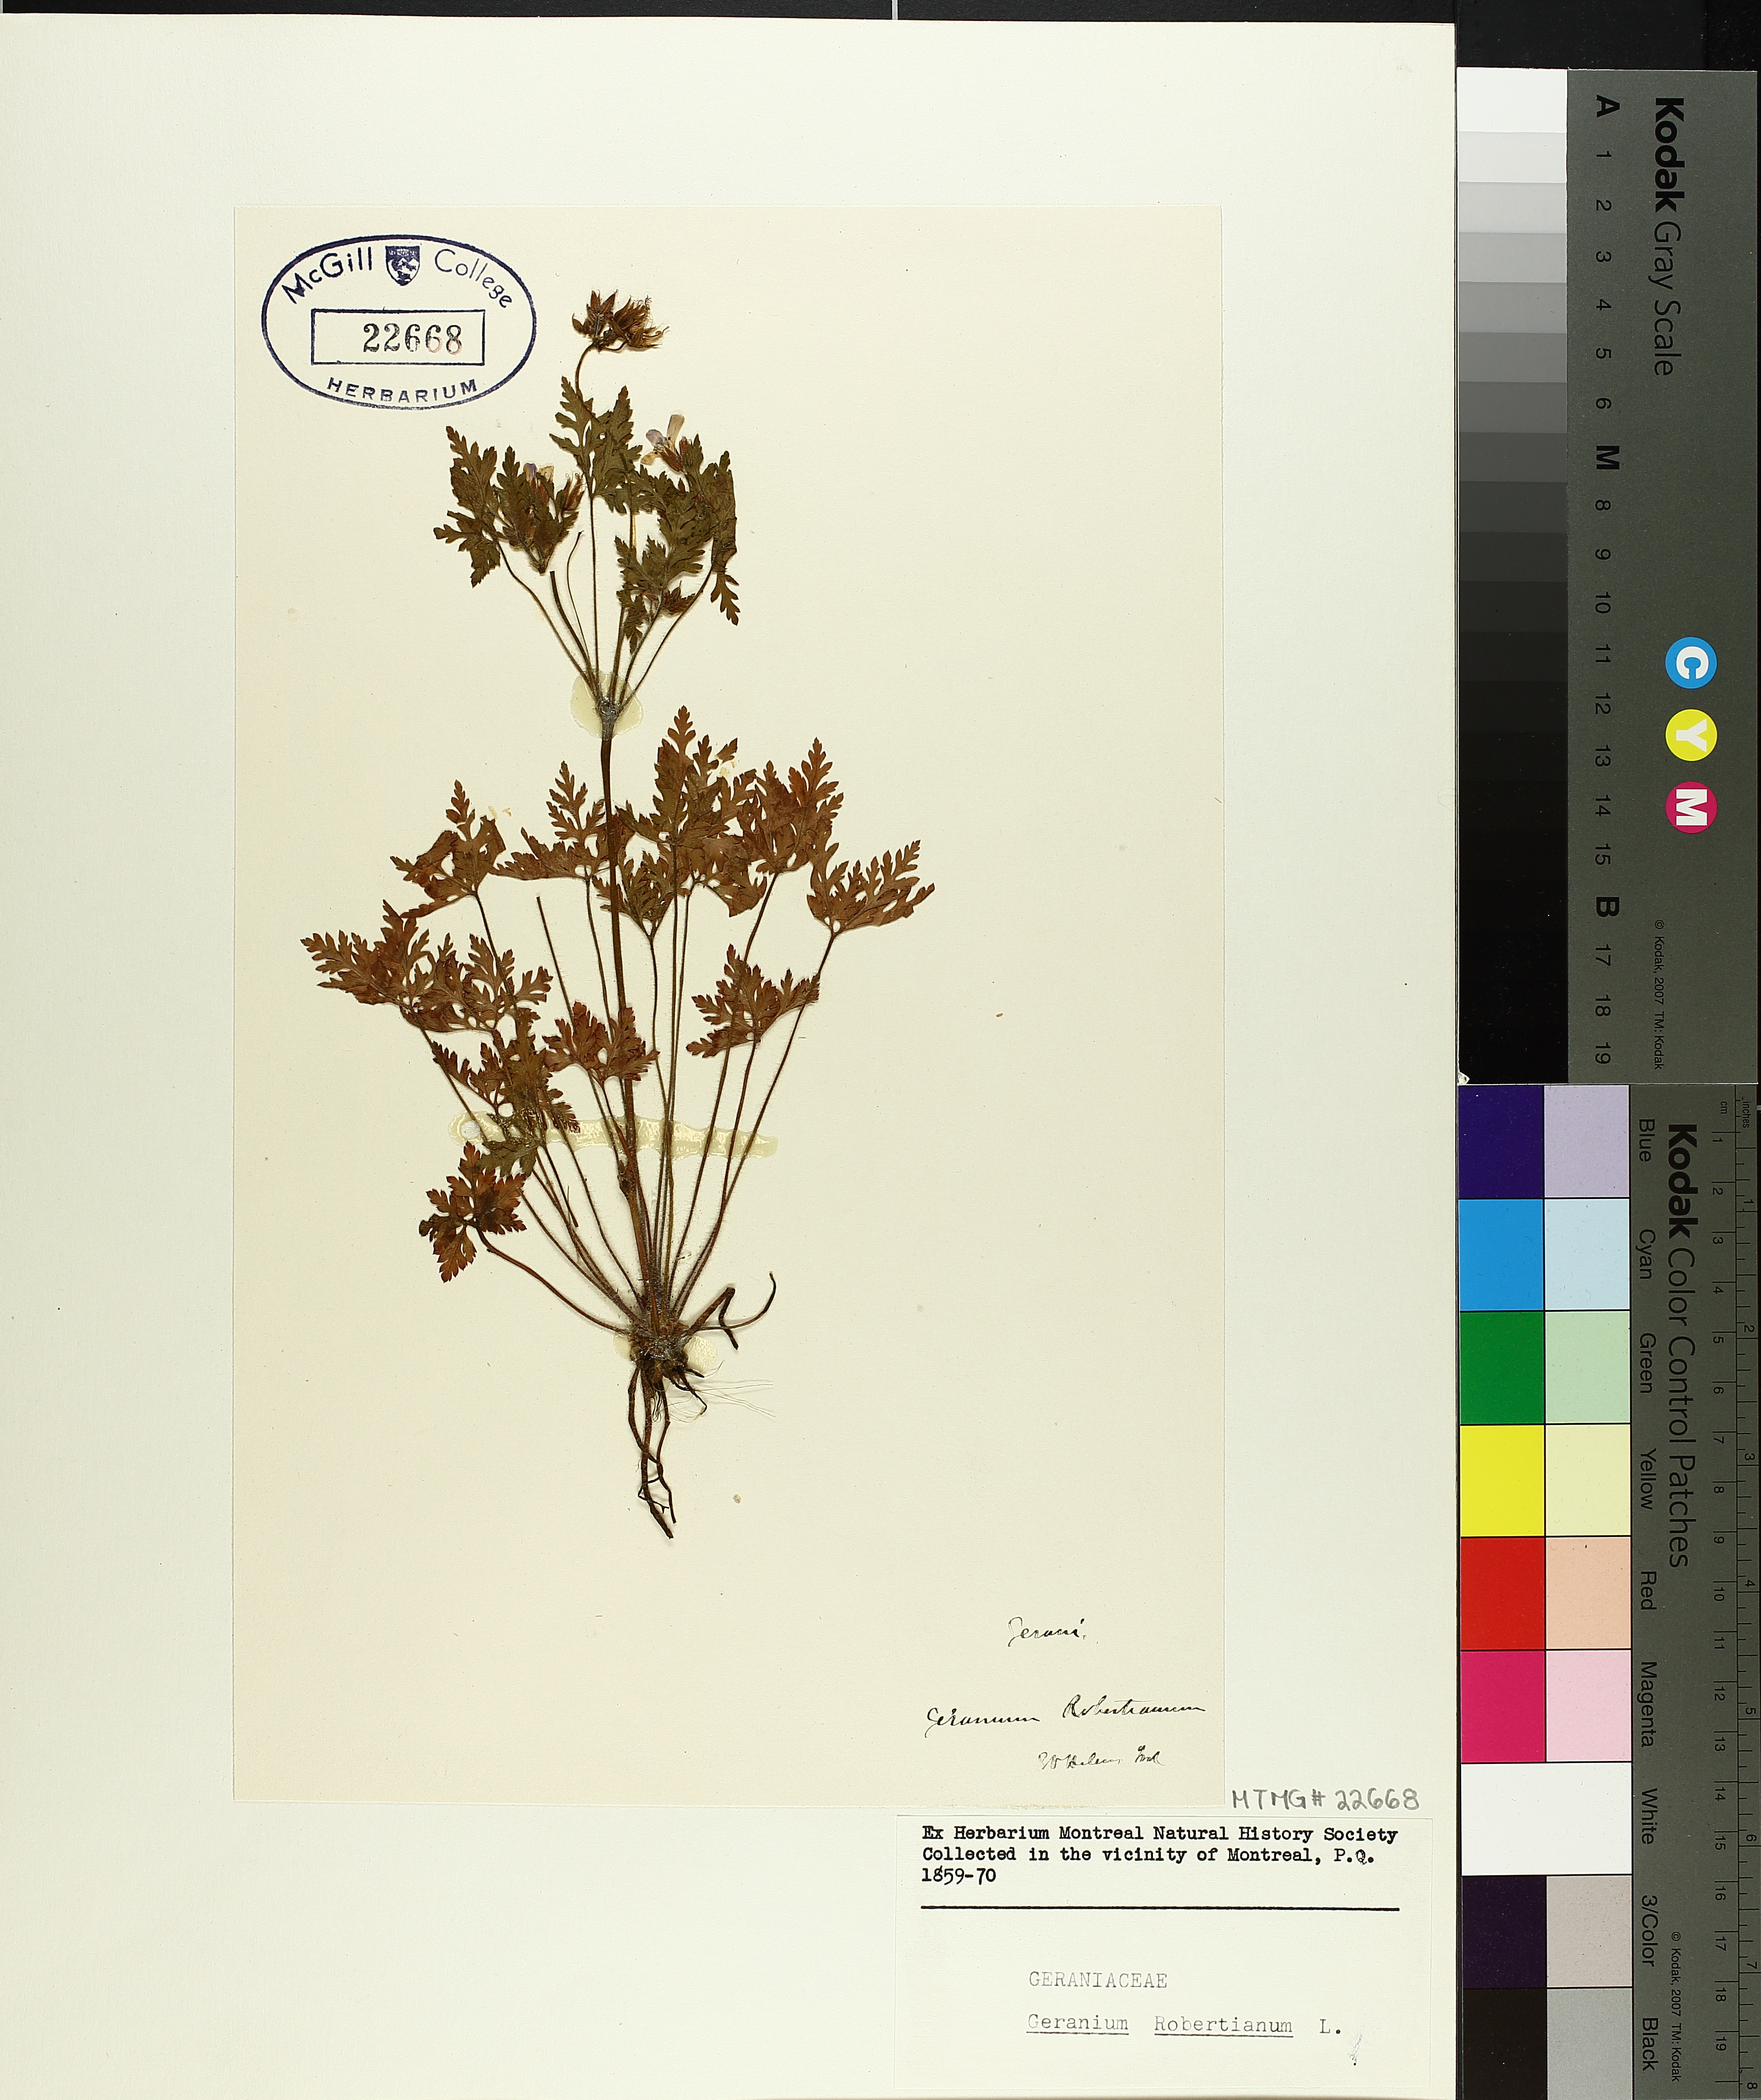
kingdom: Plantae
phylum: Tracheophyta
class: Magnoliopsida
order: Geraniales
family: Geraniaceae
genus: Geranium
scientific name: Geranium robertianum
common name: Herb-robert
